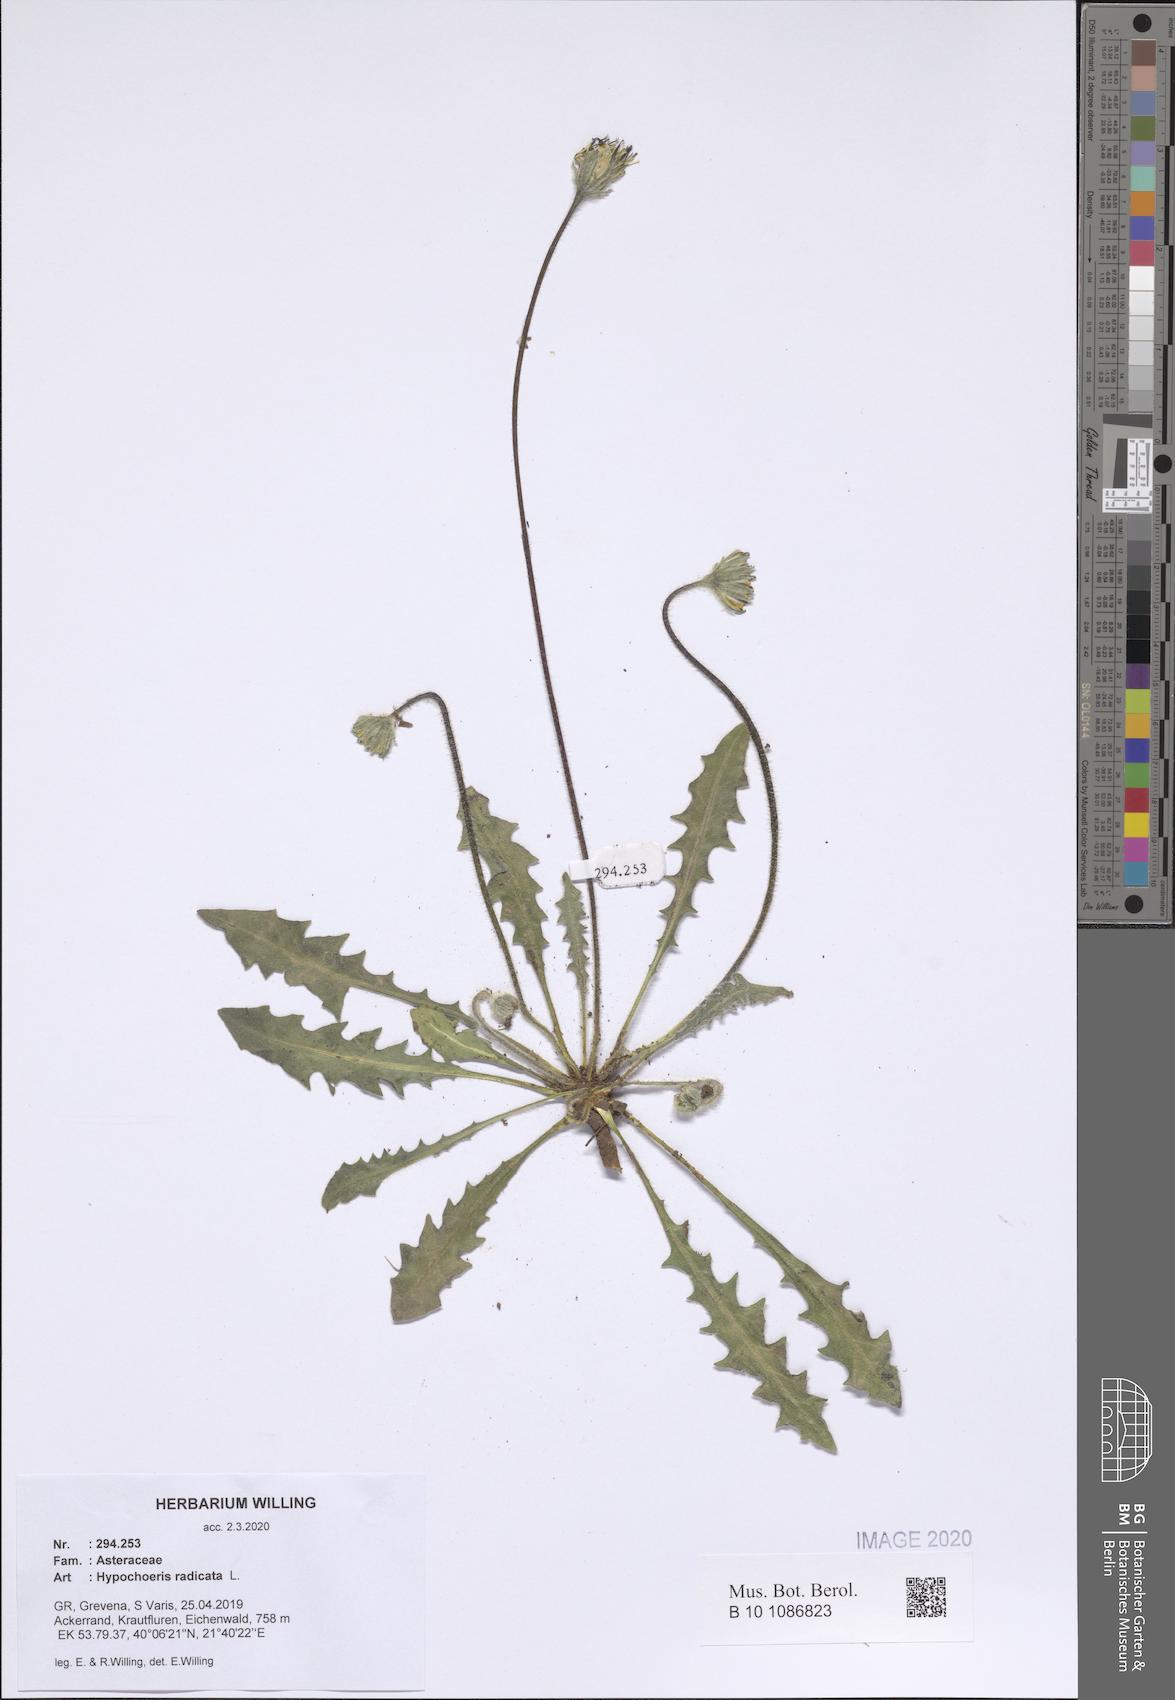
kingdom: Plantae
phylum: Tracheophyta
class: Magnoliopsida
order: Asterales
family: Asteraceae
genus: Hypochaeris
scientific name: Hypochaeris radicata
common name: Flatweed
